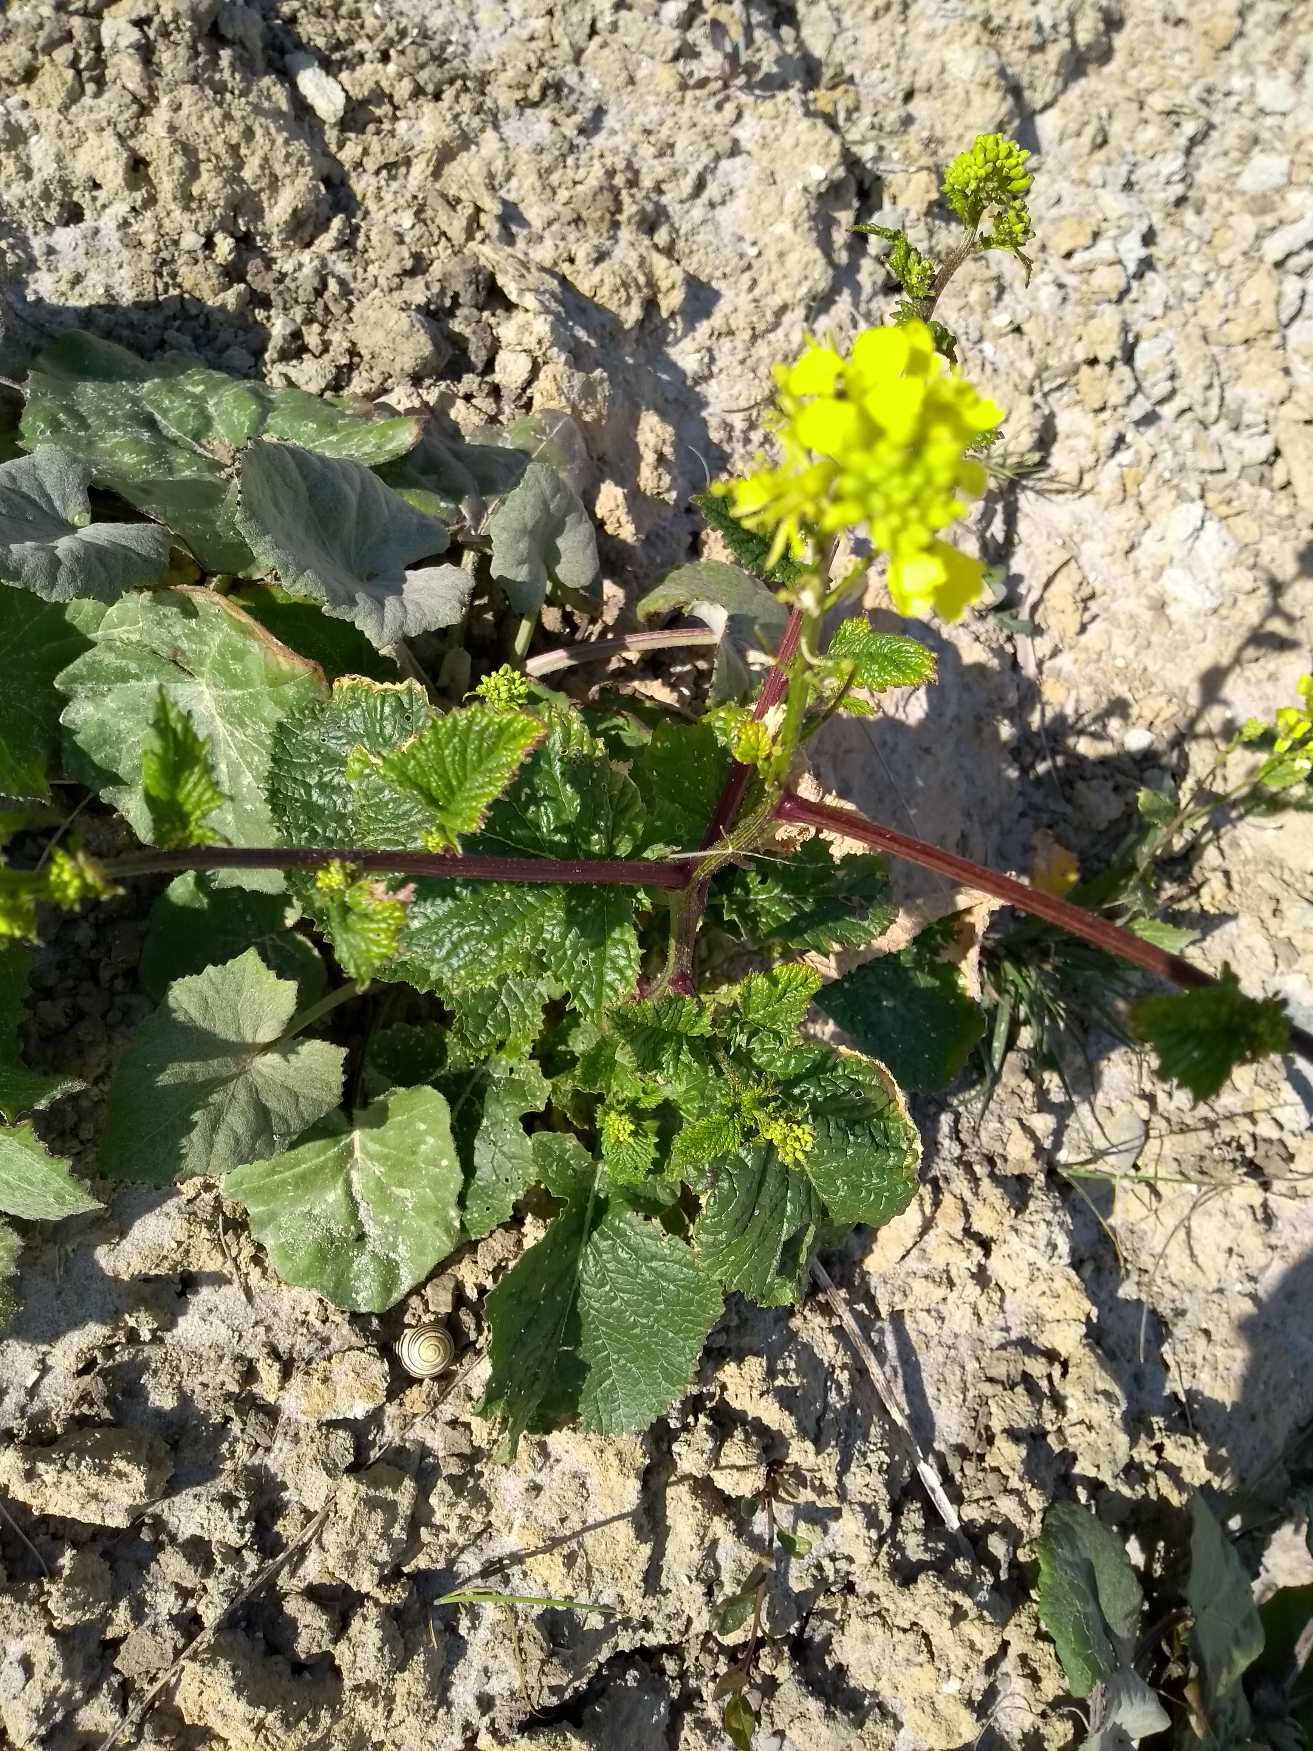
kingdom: Plantae
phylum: Tracheophyta
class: Magnoliopsida
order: Brassicales
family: Brassicaceae
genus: Sinapis
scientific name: Sinapis arvensis
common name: Ager-sennep
